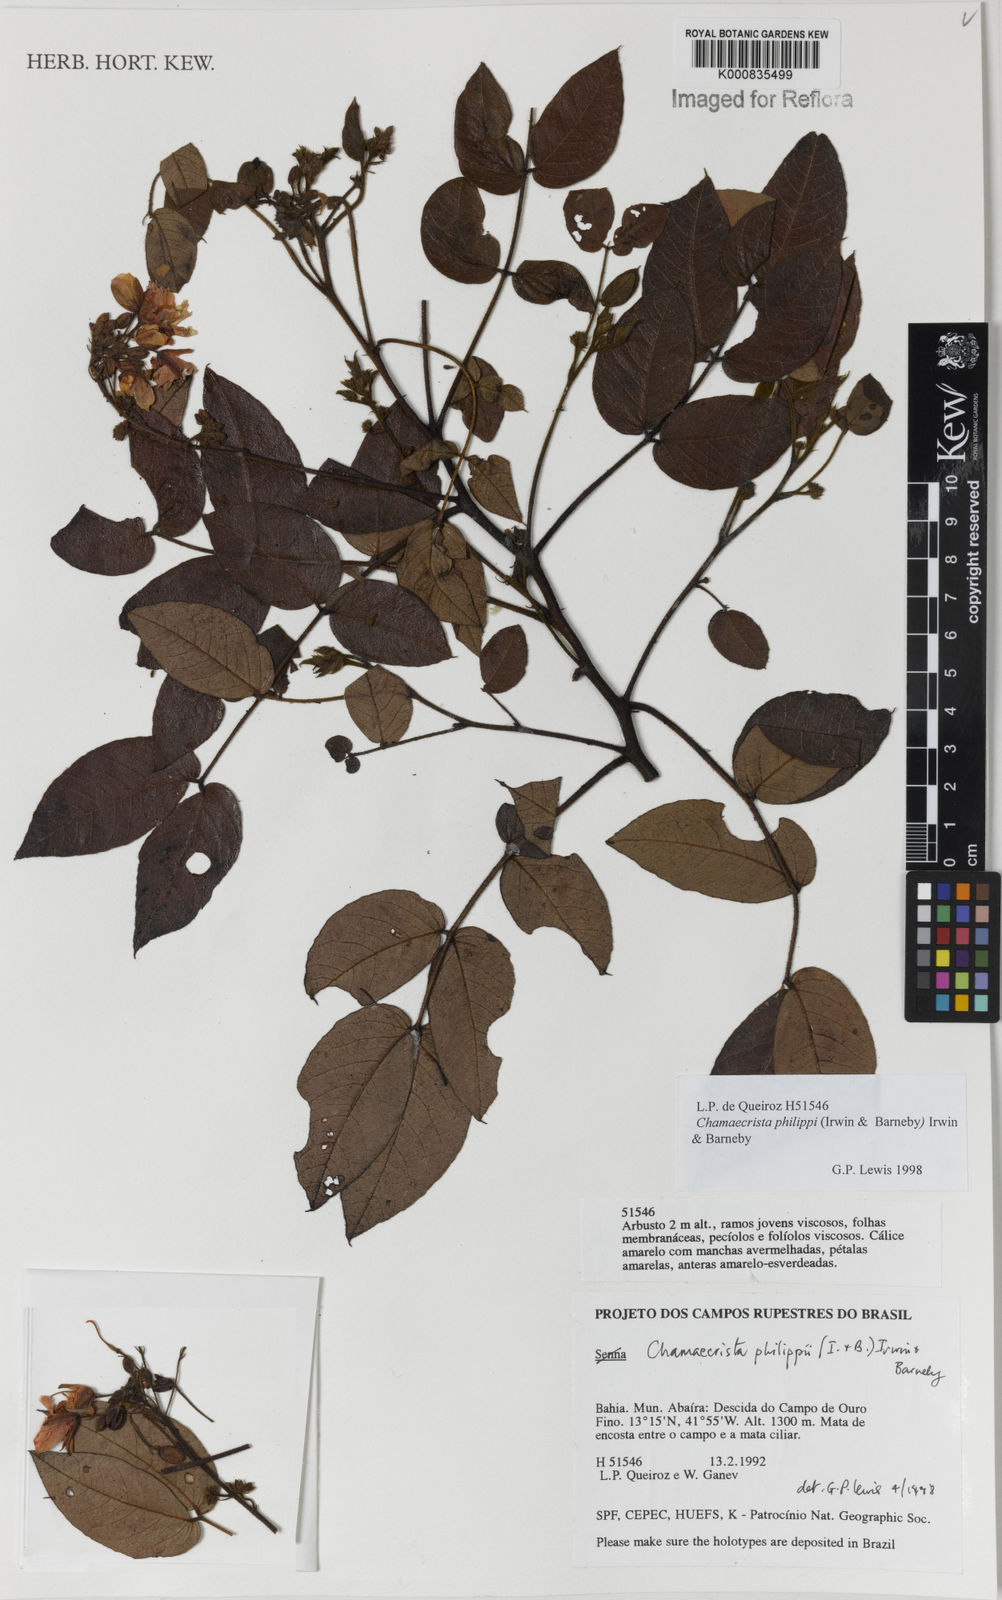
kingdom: Plantae
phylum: Tracheophyta
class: Magnoliopsida
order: Fabales
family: Fabaceae
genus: Chamaecrista
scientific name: Chamaecrista philippii
